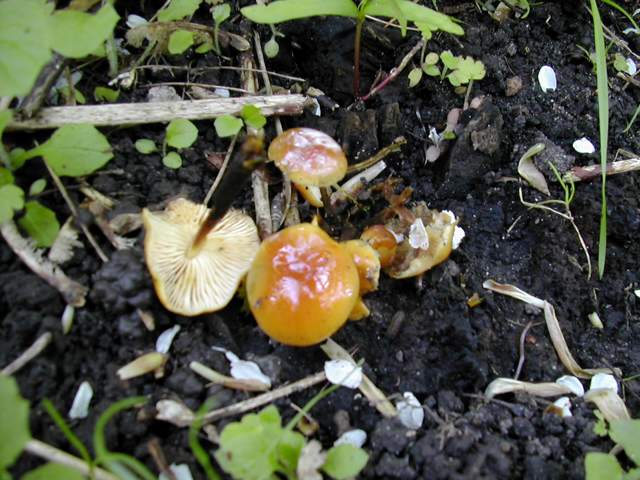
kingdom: Fungi
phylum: Basidiomycota
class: Agaricomycetes
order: Agaricales
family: Physalacriaceae
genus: Flammulina
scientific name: Flammulina velutipes
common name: gul fløjlsfod
